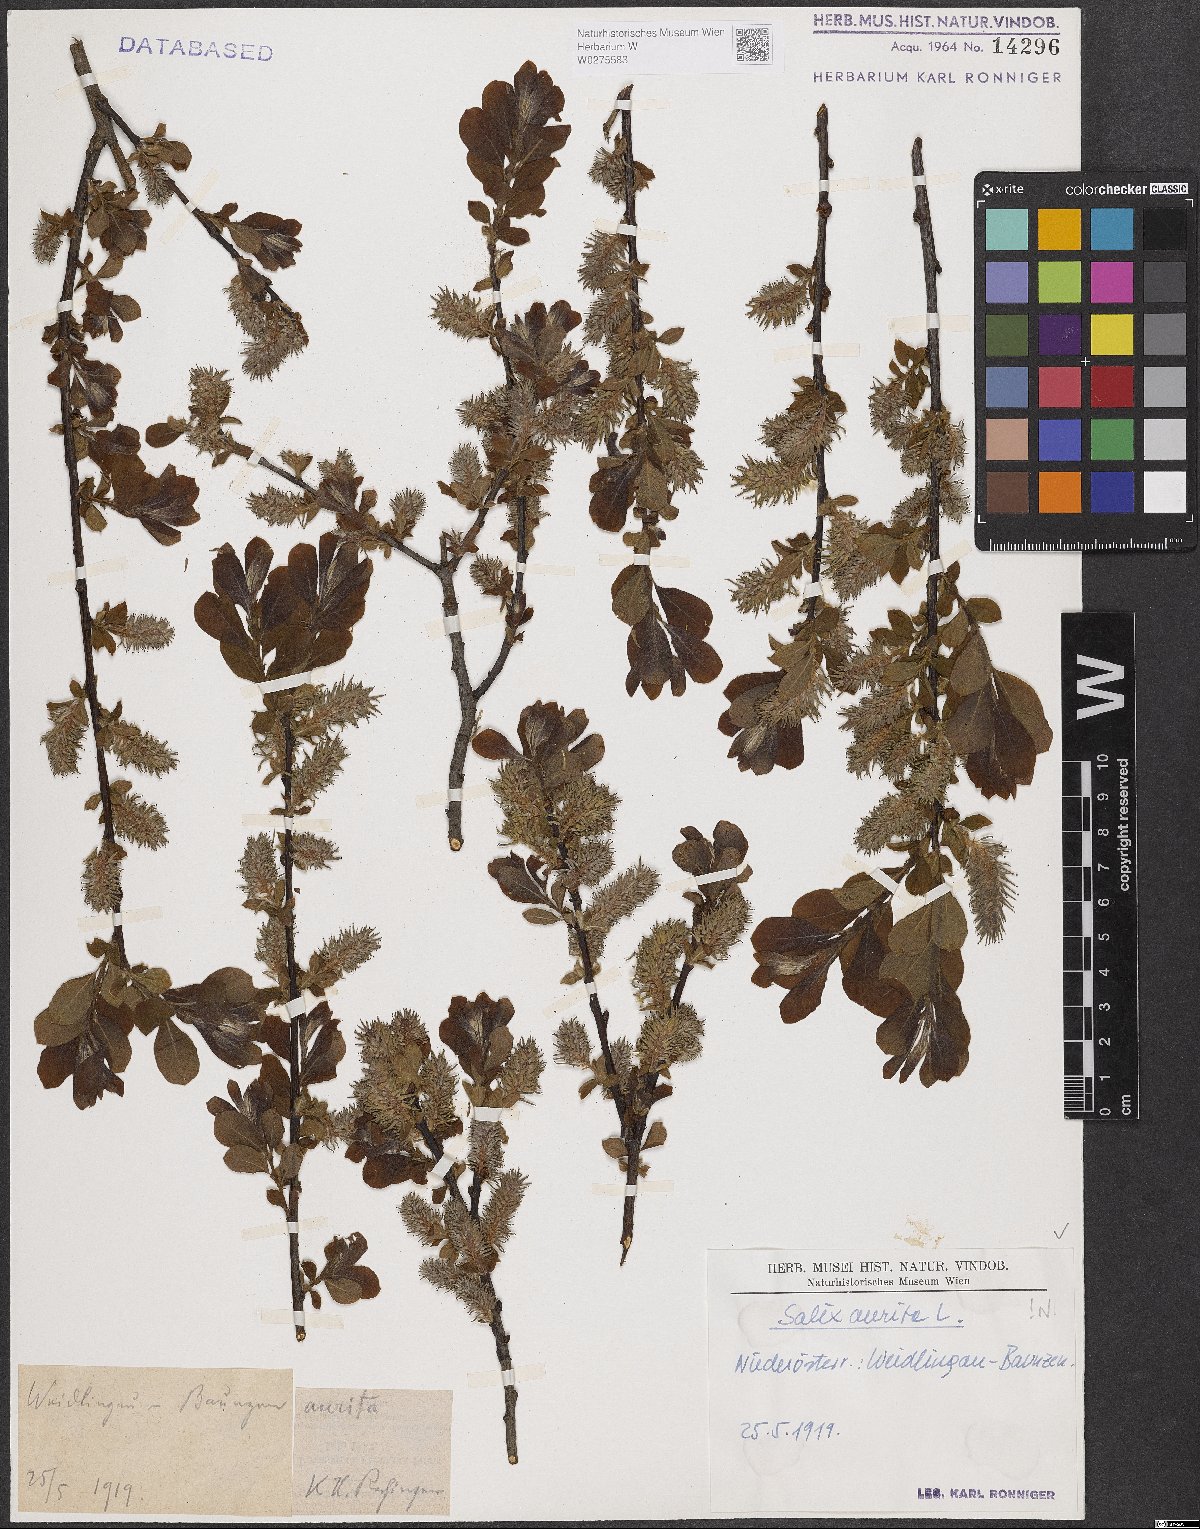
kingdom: Plantae
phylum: Tracheophyta
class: Magnoliopsida
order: Malpighiales
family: Salicaceae
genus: Salix
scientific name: Salix aurita
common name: Eared willow
